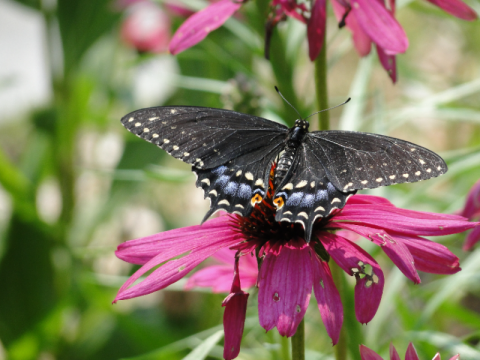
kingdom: Animalia
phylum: Arthropoda
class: Insecta
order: Lepidoptera
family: Papilionidae
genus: Papilio
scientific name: Papilio polyxenes
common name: Black Swallowtail
